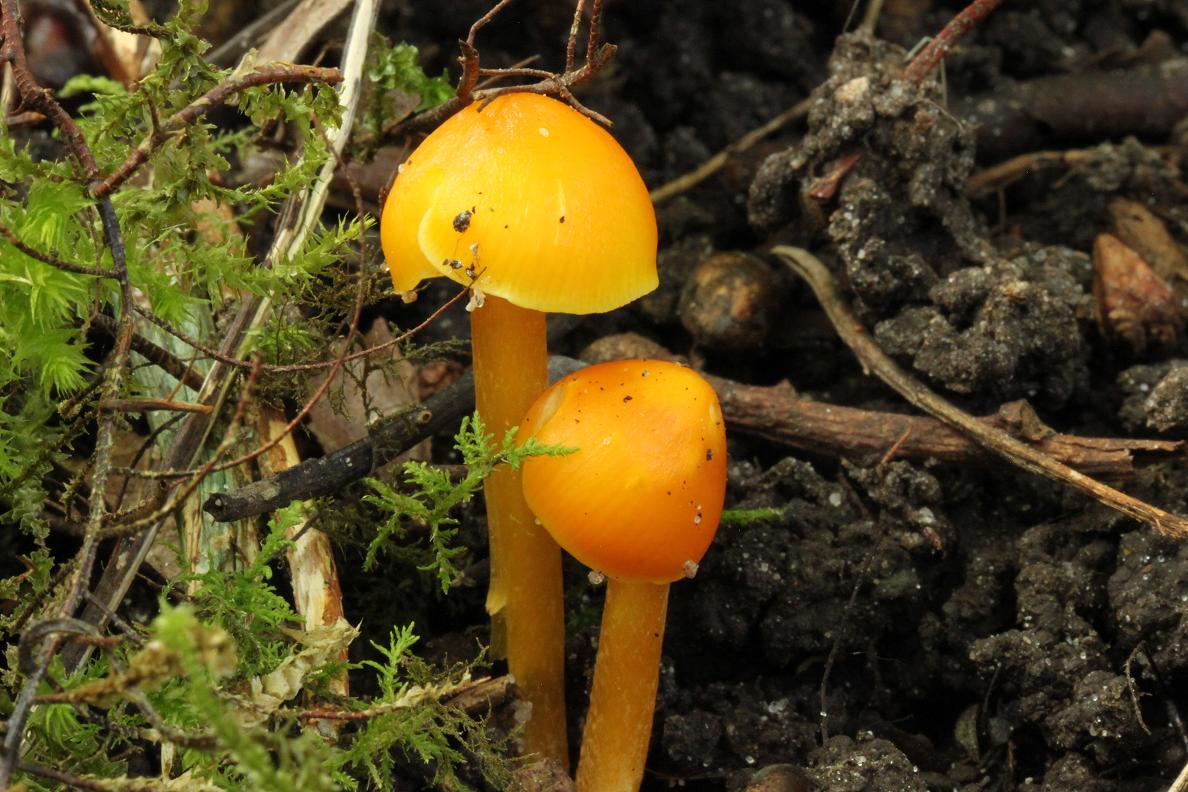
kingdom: Fungi
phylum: Basidiomycota
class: Agaricomycetes
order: Agaricales
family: Hygrophoraceae
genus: Hygrocybe
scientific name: Hygrocybe chlorophana
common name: gul vokshat
